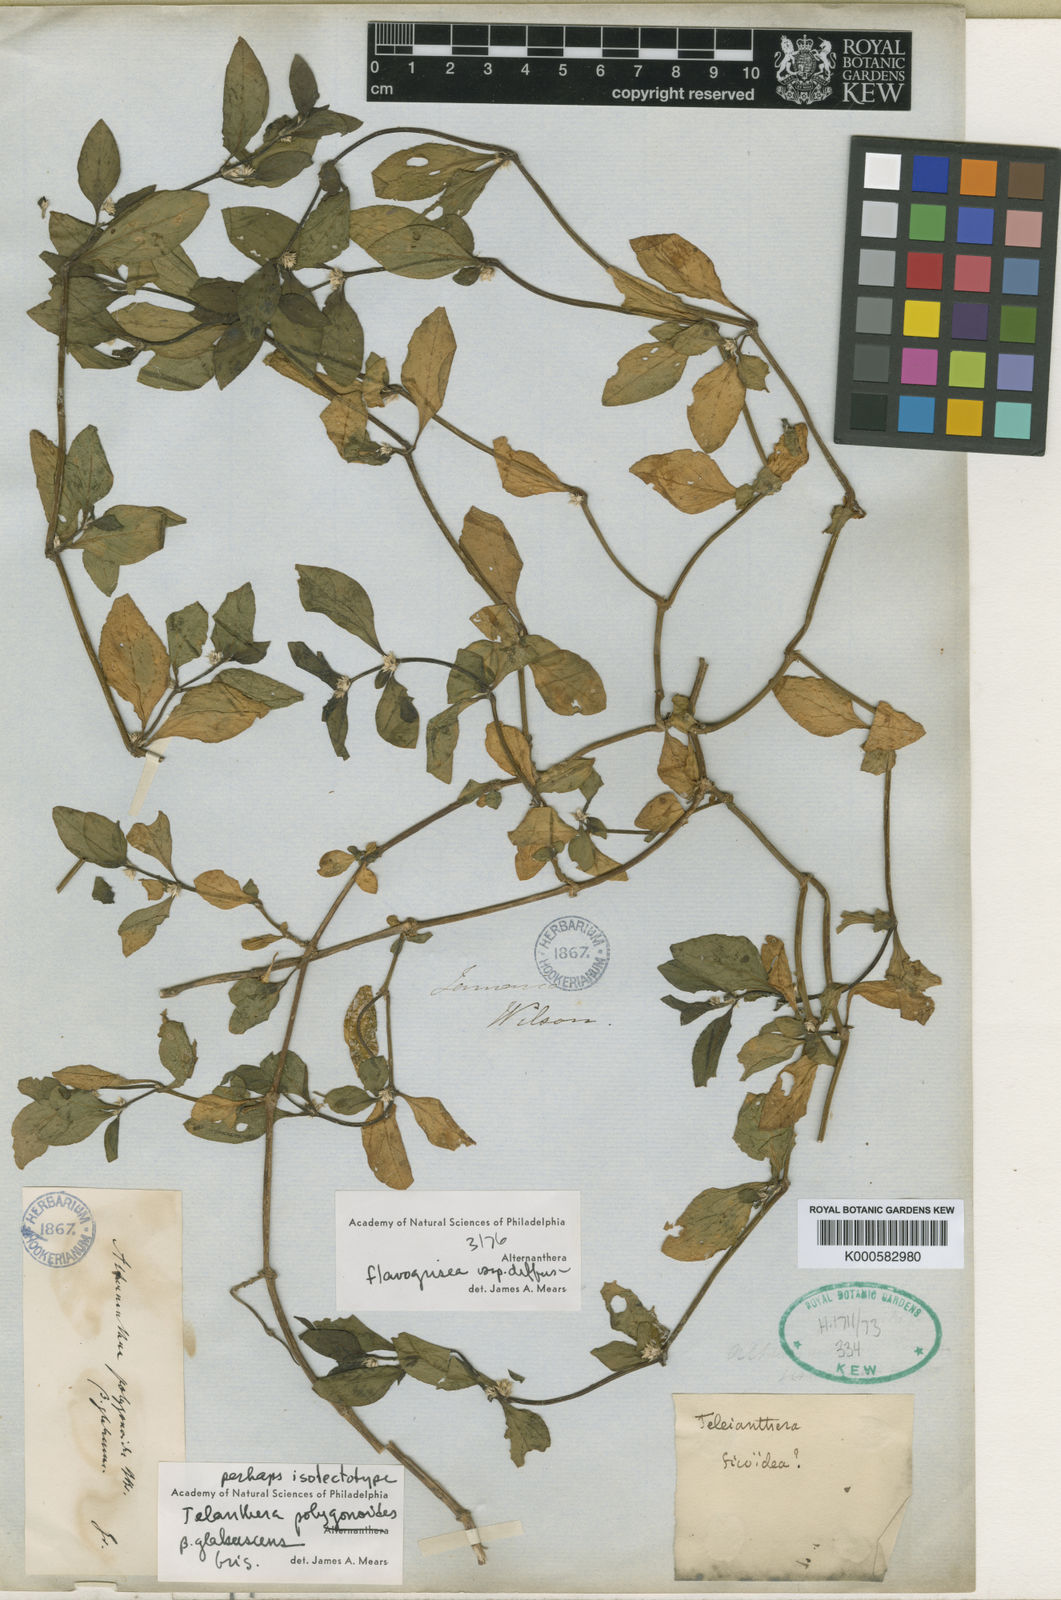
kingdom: Plantae
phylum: Tracheophyta
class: Magnoliopsida
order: Caryophyllales
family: Amaranthaceae
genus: Alternanthera
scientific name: Alternanthera
